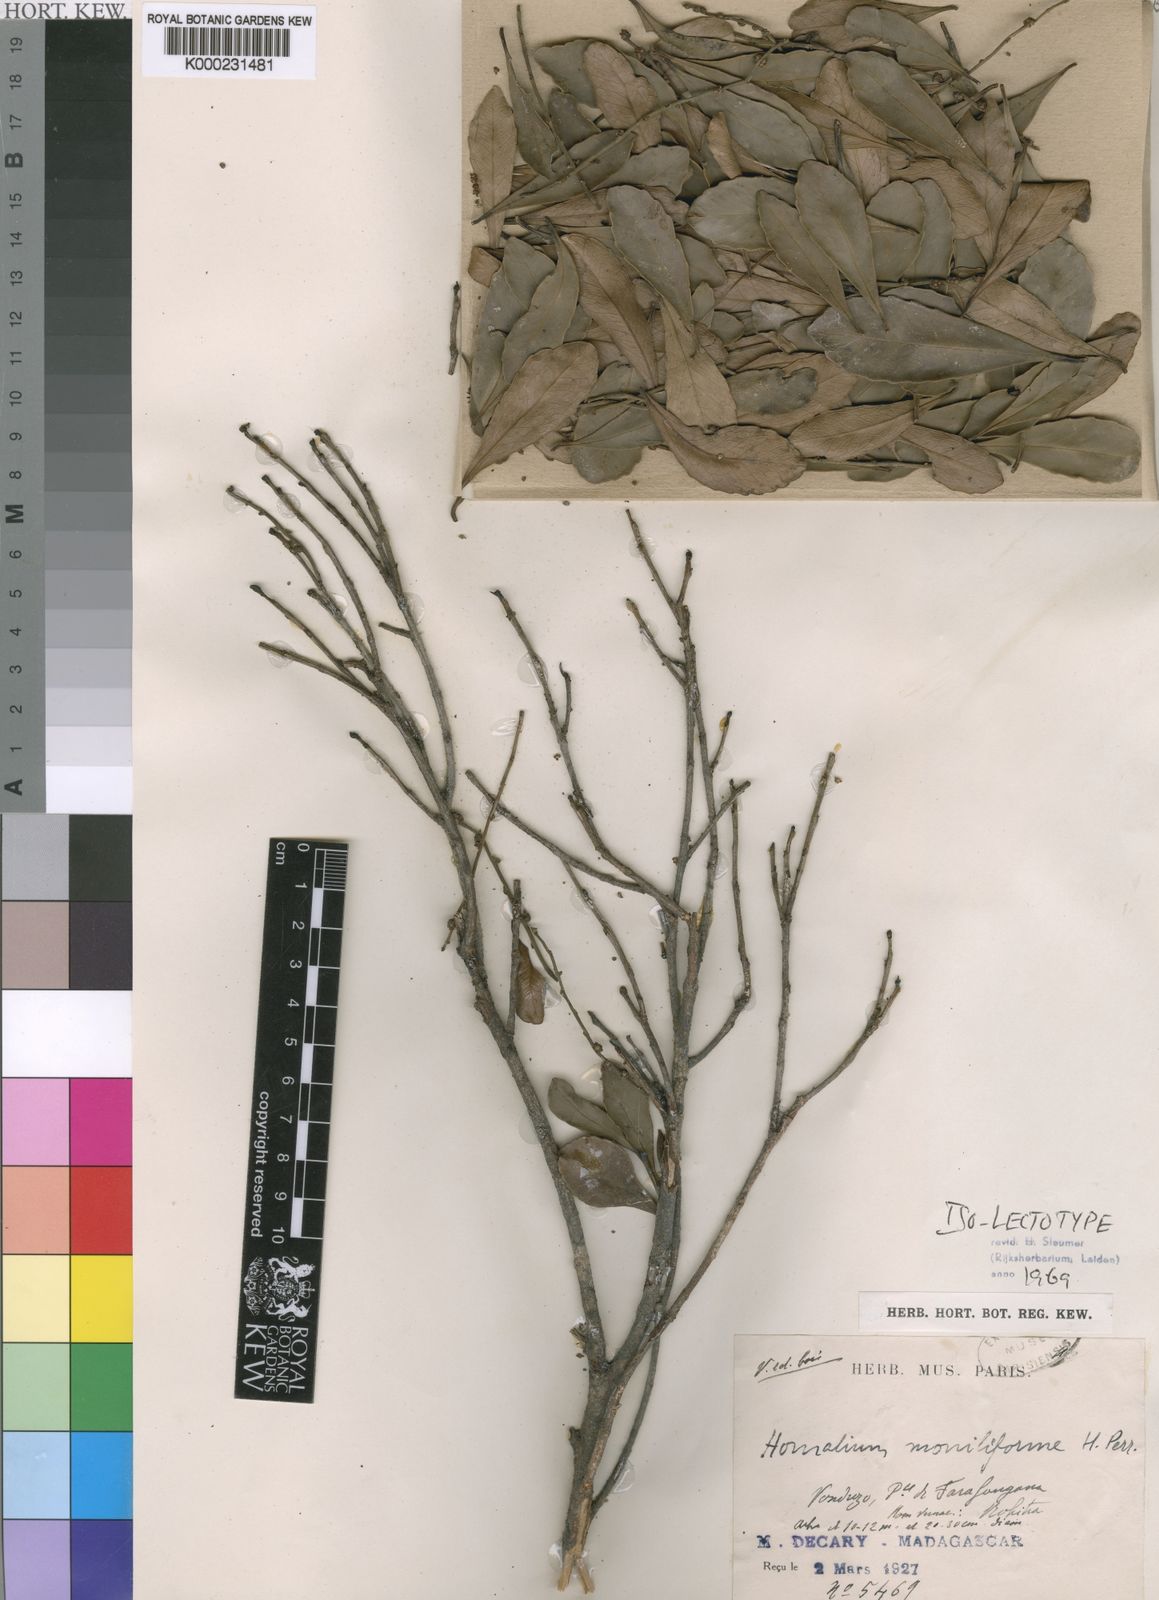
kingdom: Plantae
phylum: Tracheophyta
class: Magnoliopsida
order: Malpighiales
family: Salicaceae
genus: Homalium
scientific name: Homalium moniliforme
